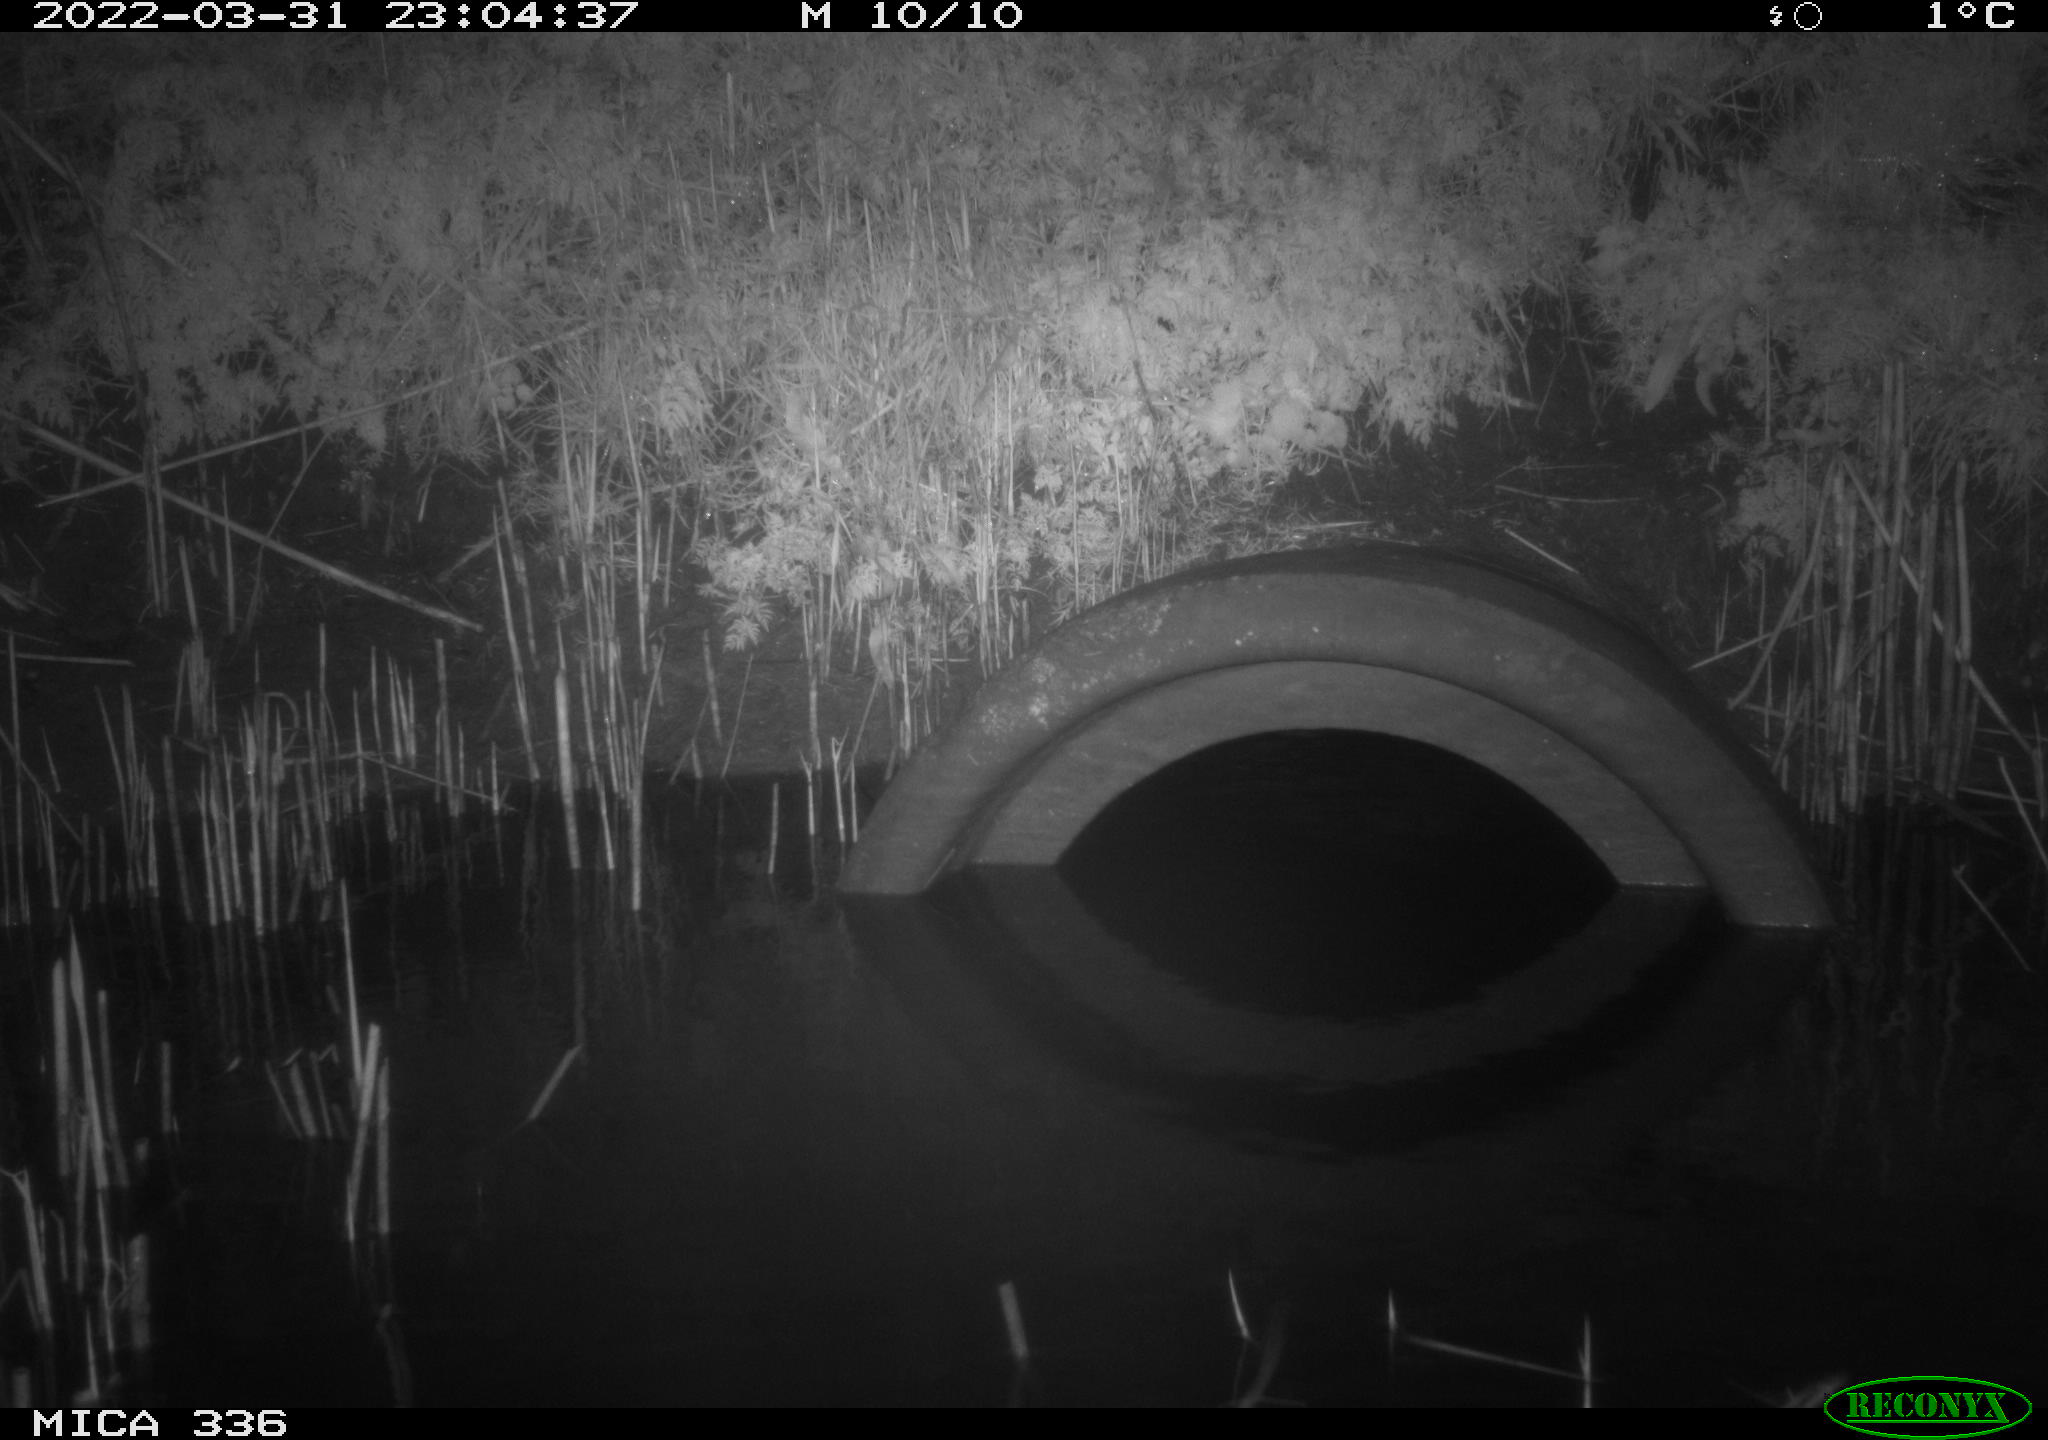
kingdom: Animalia
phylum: Chordata
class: Mammalia
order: Rodentia
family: Muridae
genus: Rattus
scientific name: Rattus norvegicus
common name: Brown rat
